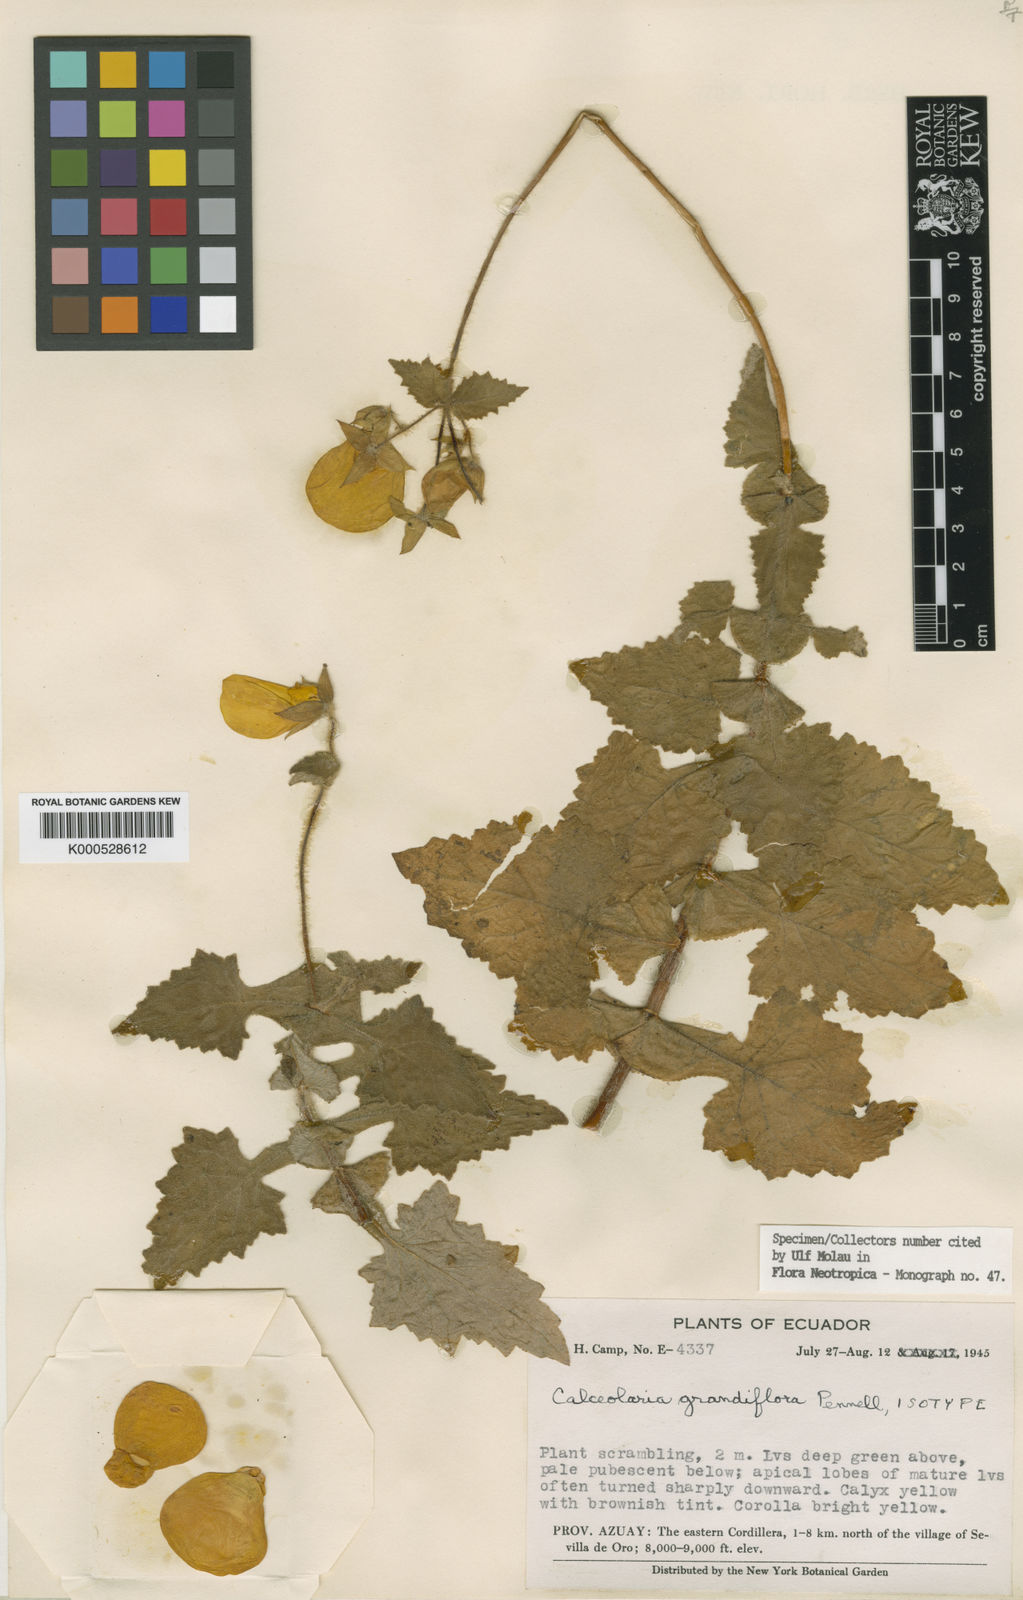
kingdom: Plantae
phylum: Tracheophyta
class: Magnoliopsida
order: Lamiales
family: Calceolariaceae
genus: Calceolaria
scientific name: Calceolaria grandiflora
